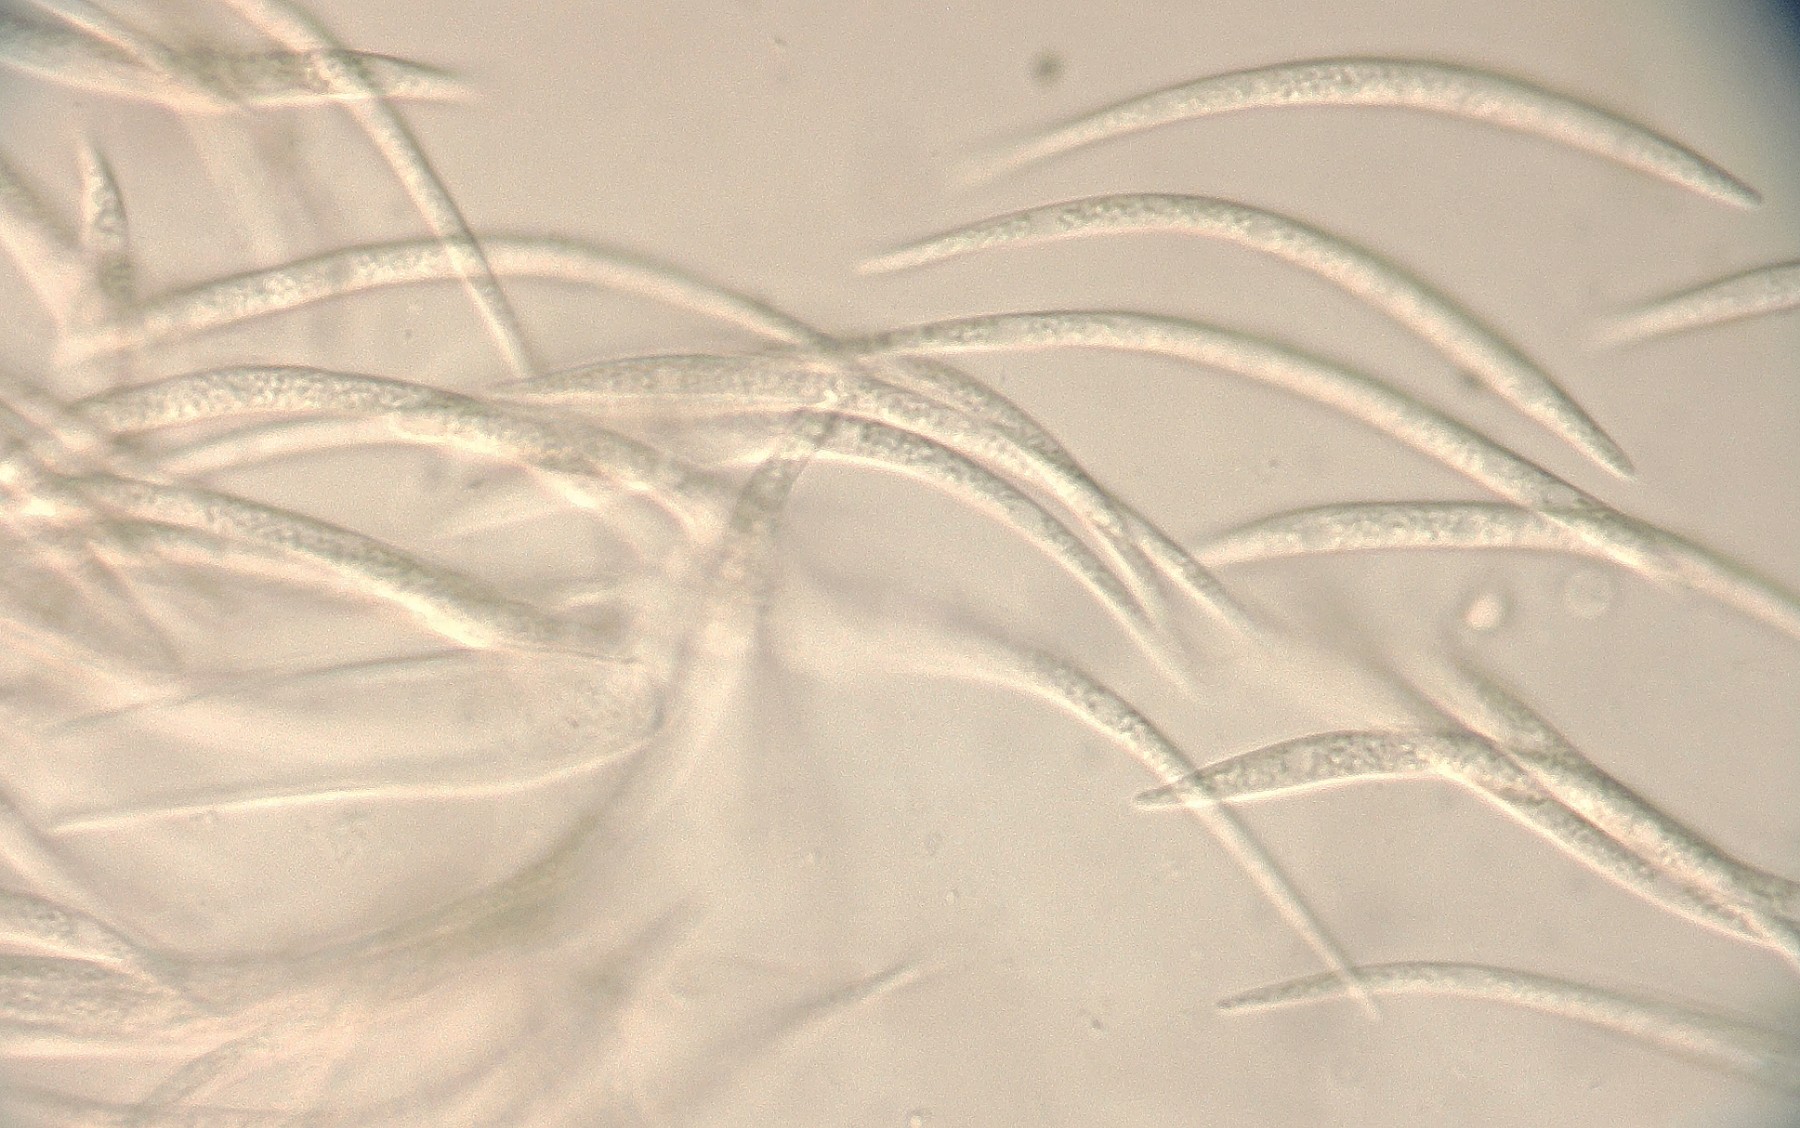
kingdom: Fungi
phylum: Ascomycota
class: Leotiomycetes
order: Rhytismatales
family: Rhytismataceae
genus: Therrya
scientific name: Therrya pini
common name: fyrre-tandskive
